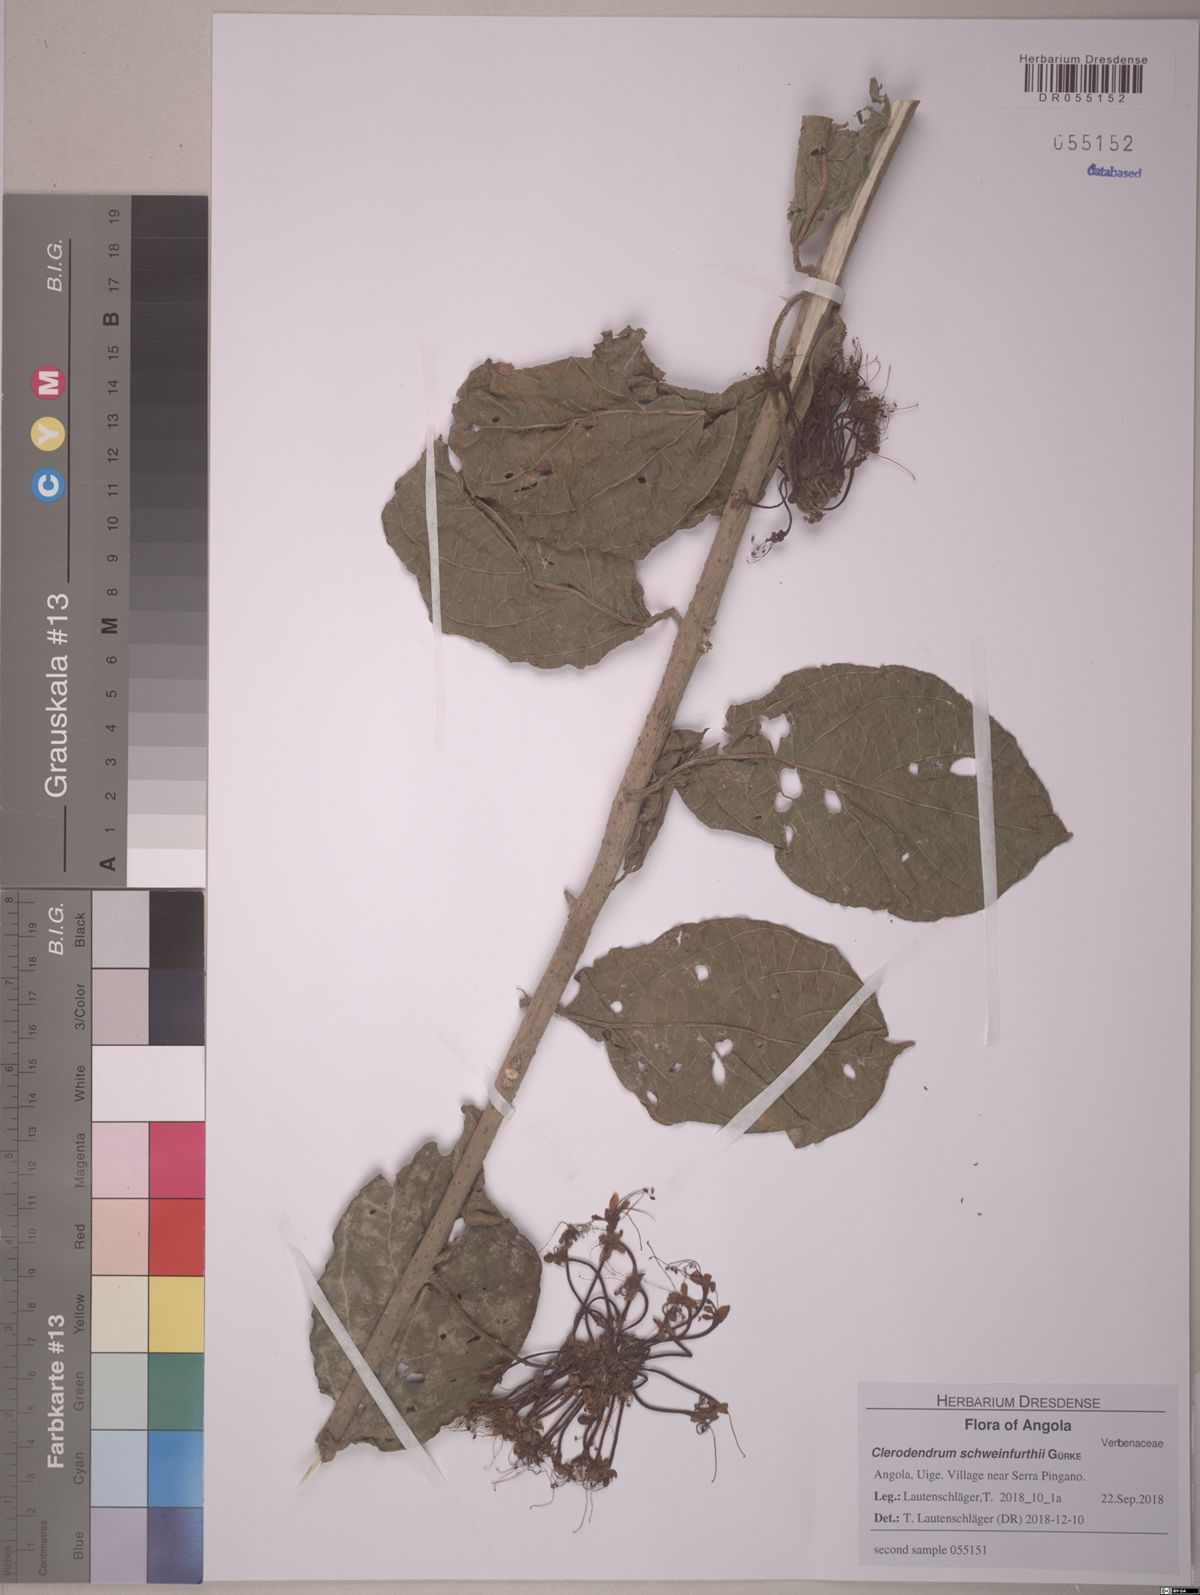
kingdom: Plantae
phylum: Tracheophyta
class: Magnoliopsida
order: Lamiales
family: Lamiaceae
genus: Clerodendrum
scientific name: Clerodendrum schweinfurthii
